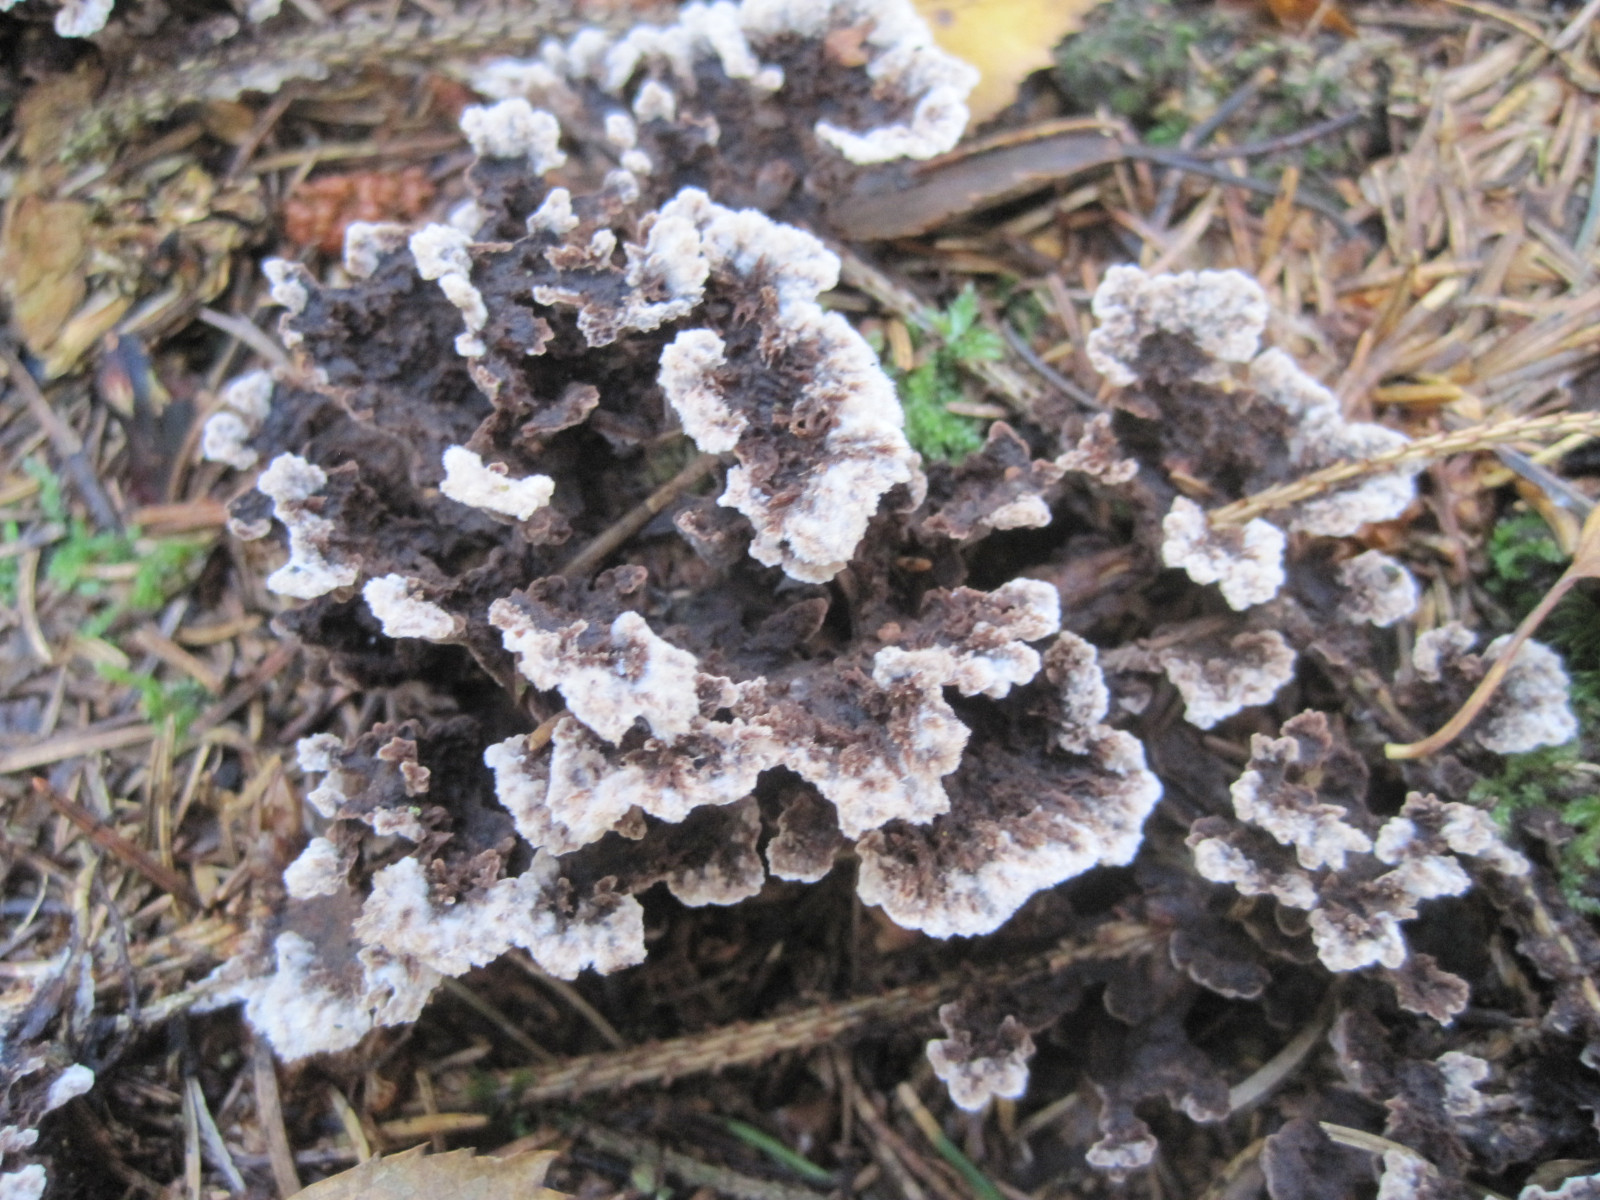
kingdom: Fungi
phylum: Basidiomycota
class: Agaricomycetes
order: Thelephorales
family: Thelephoraceae
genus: Thelephora
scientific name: Thelephora terrestris
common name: fliget frynsesvamp
